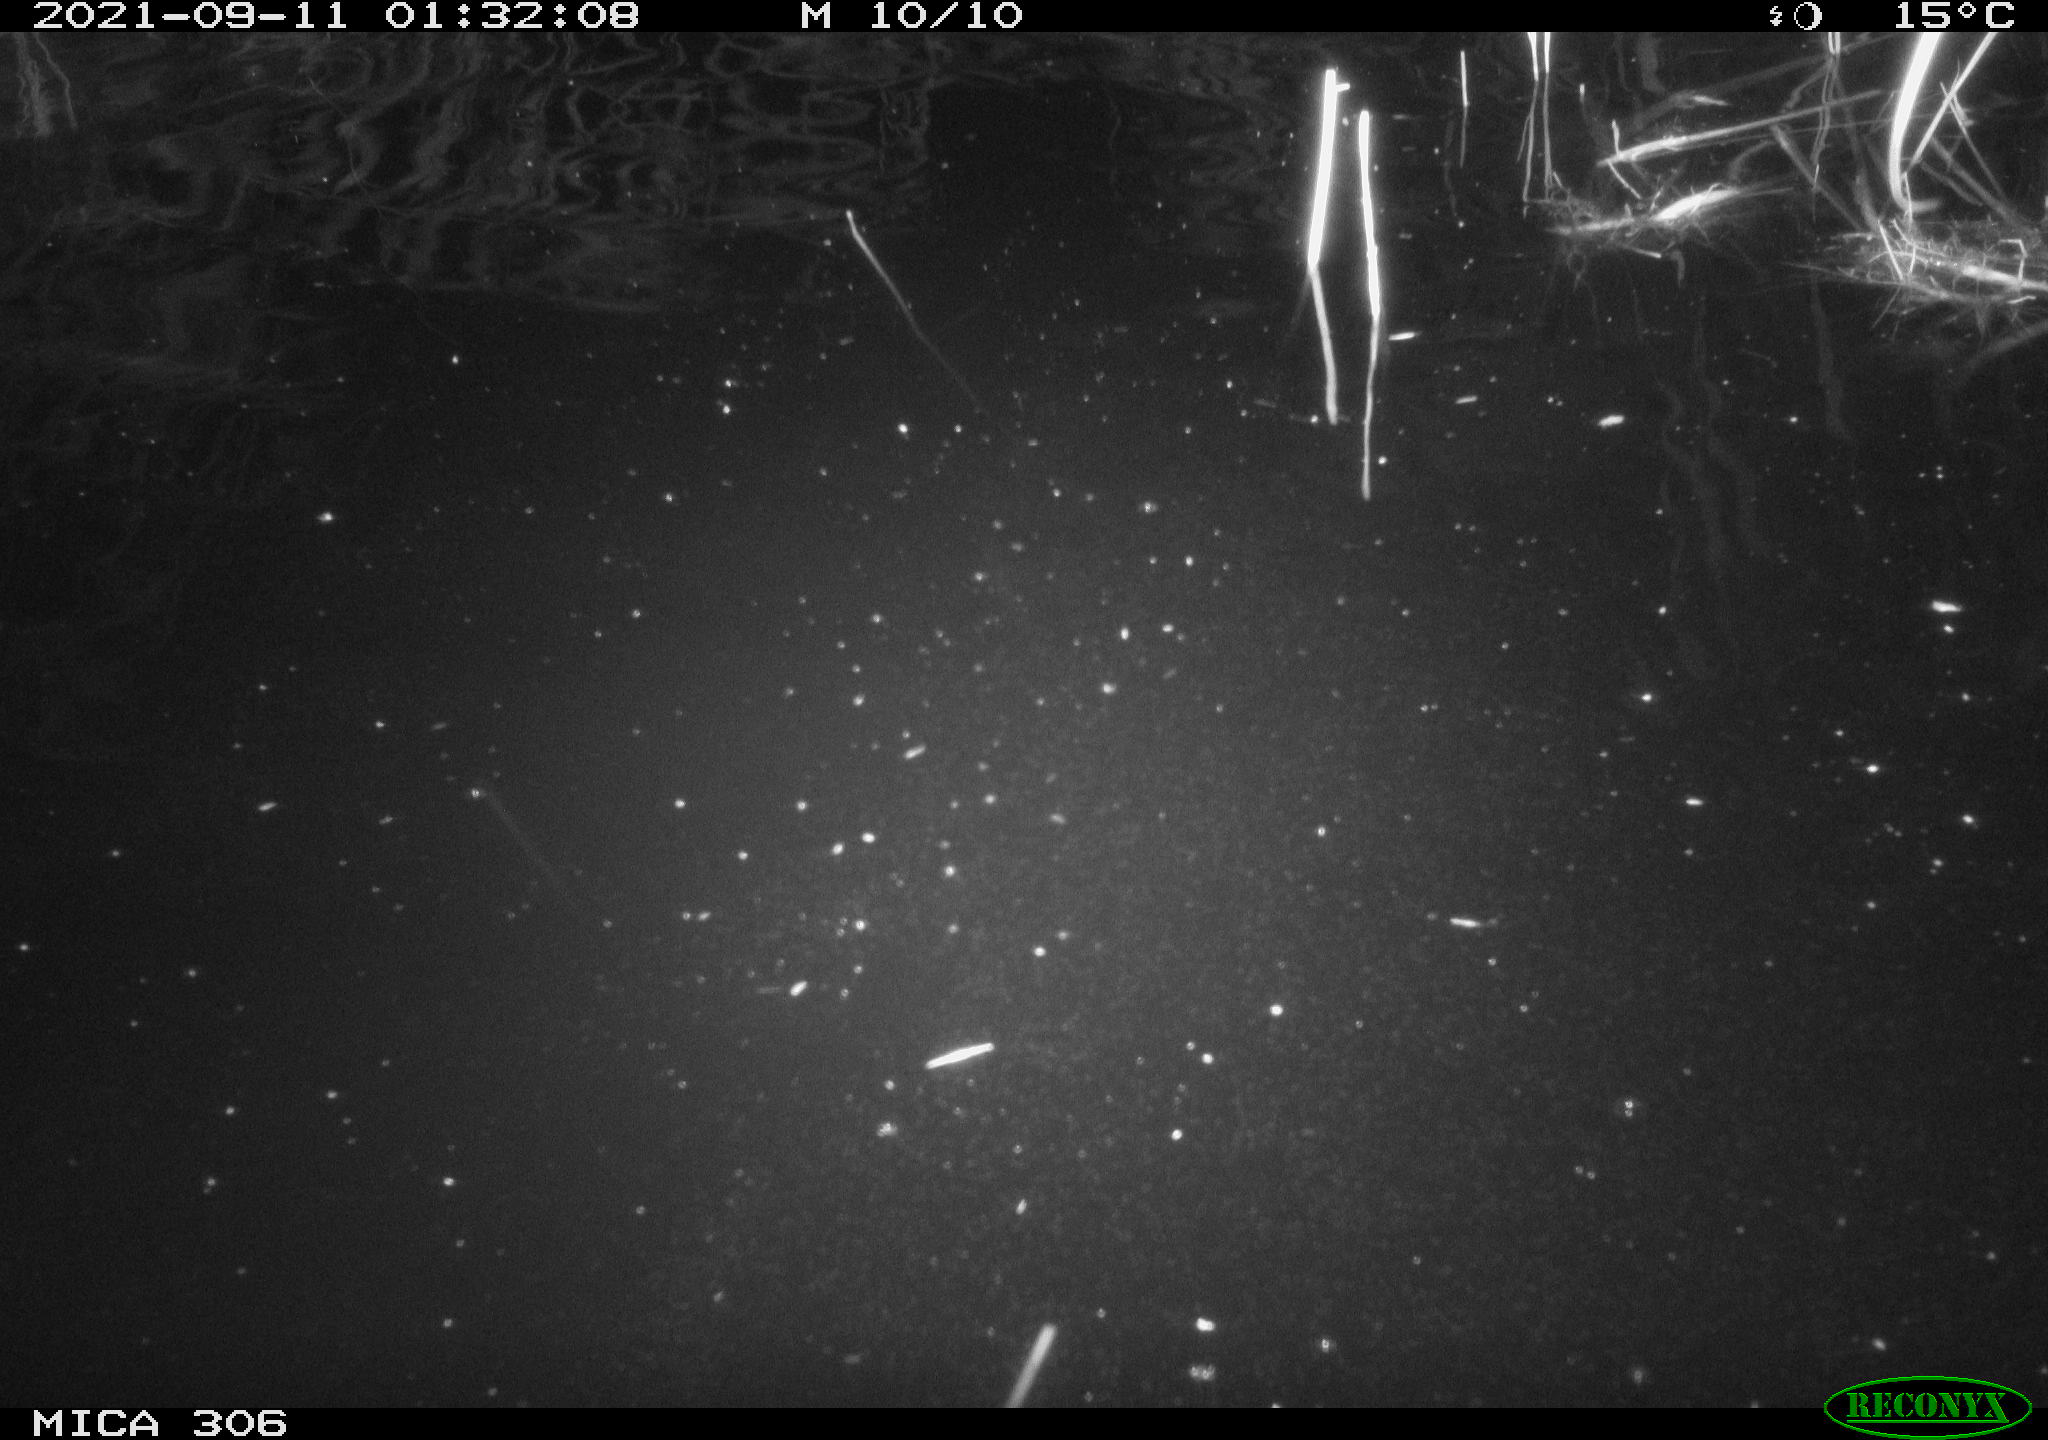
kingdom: Animalia
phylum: Chordata
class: Mammalia
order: Rodentia
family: Cricetidae
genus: Ondatra
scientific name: Ondatra zibethicus
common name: Muskrat
